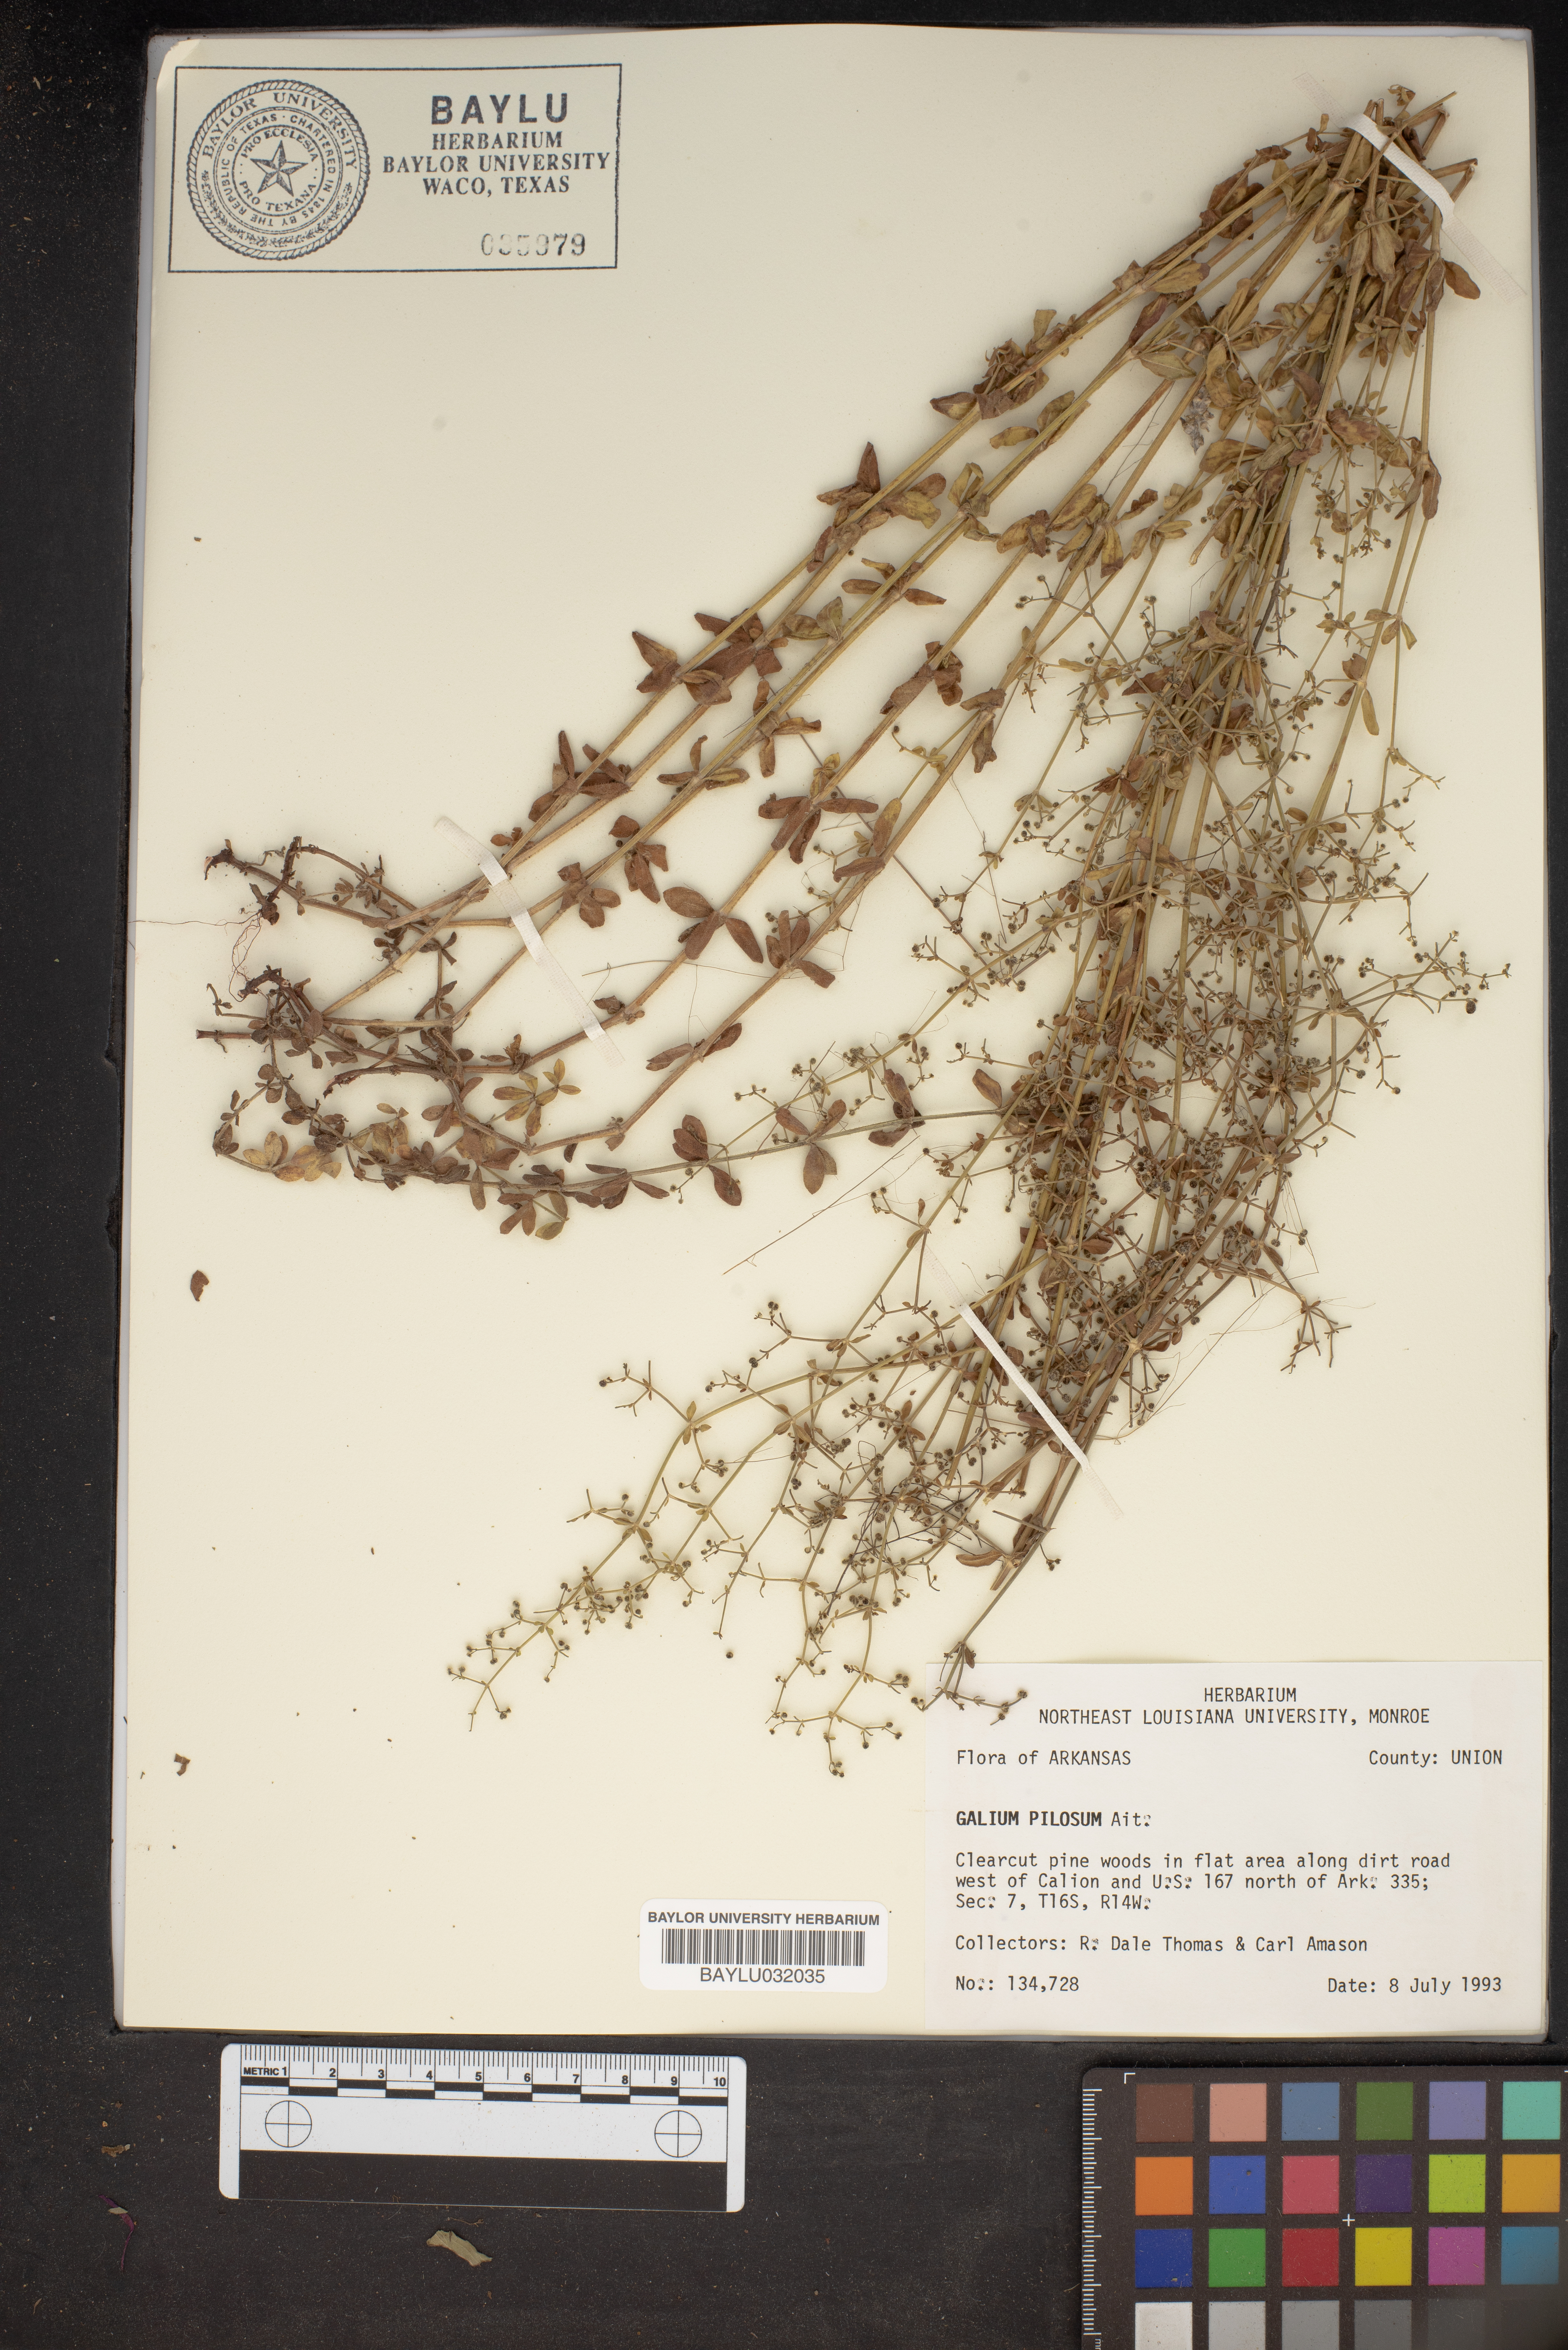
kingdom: Plantae
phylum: Tracheophyta
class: Magnoliopsida
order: Gentianales
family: Rubiaceae
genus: Galium
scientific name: Galium pilosum
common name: Hairy bedstraw
